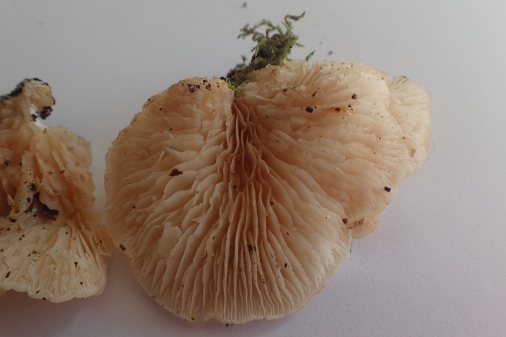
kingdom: Fungi
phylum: Basidiomycota
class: Agaricomycetes
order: Agaricales
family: Entolomataceae
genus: Clitopilus
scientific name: Clitopilus hobsonii
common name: Miller's oysterling
